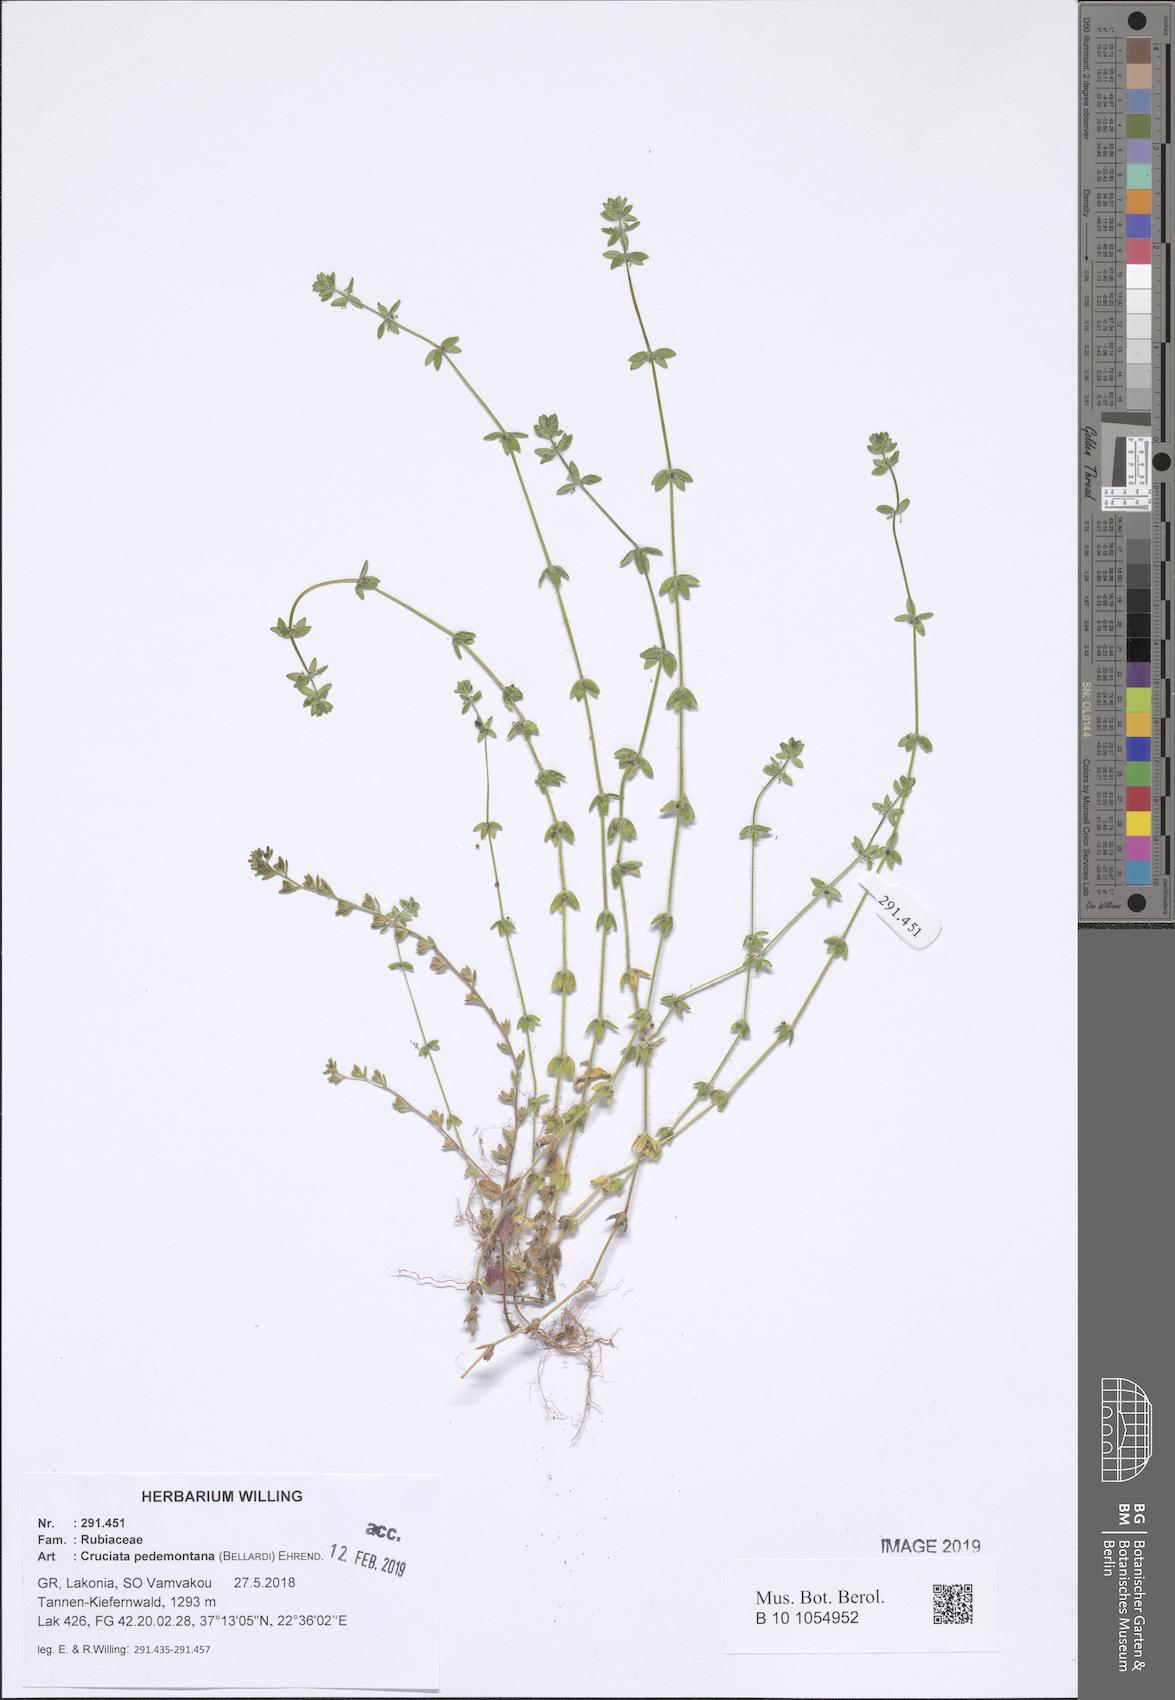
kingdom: Plantae
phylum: Tracheophyta
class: Magnoliopsida
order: Gentianales
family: Rubiaceae
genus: Cruciata
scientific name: Cruciata pedemontana
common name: Piedmont bedstraw
